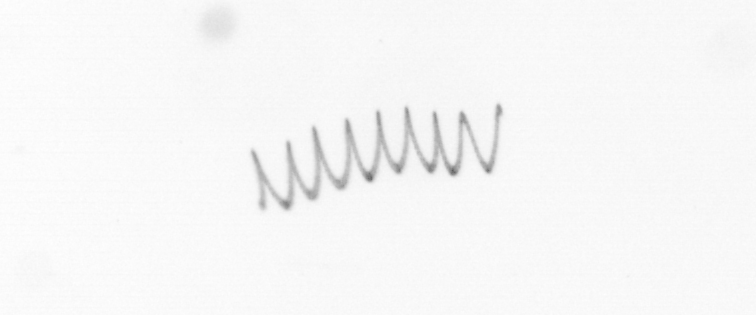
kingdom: Chromista
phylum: Ochrophyta
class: Bacillariophyceae
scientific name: Bacillariophyceae
